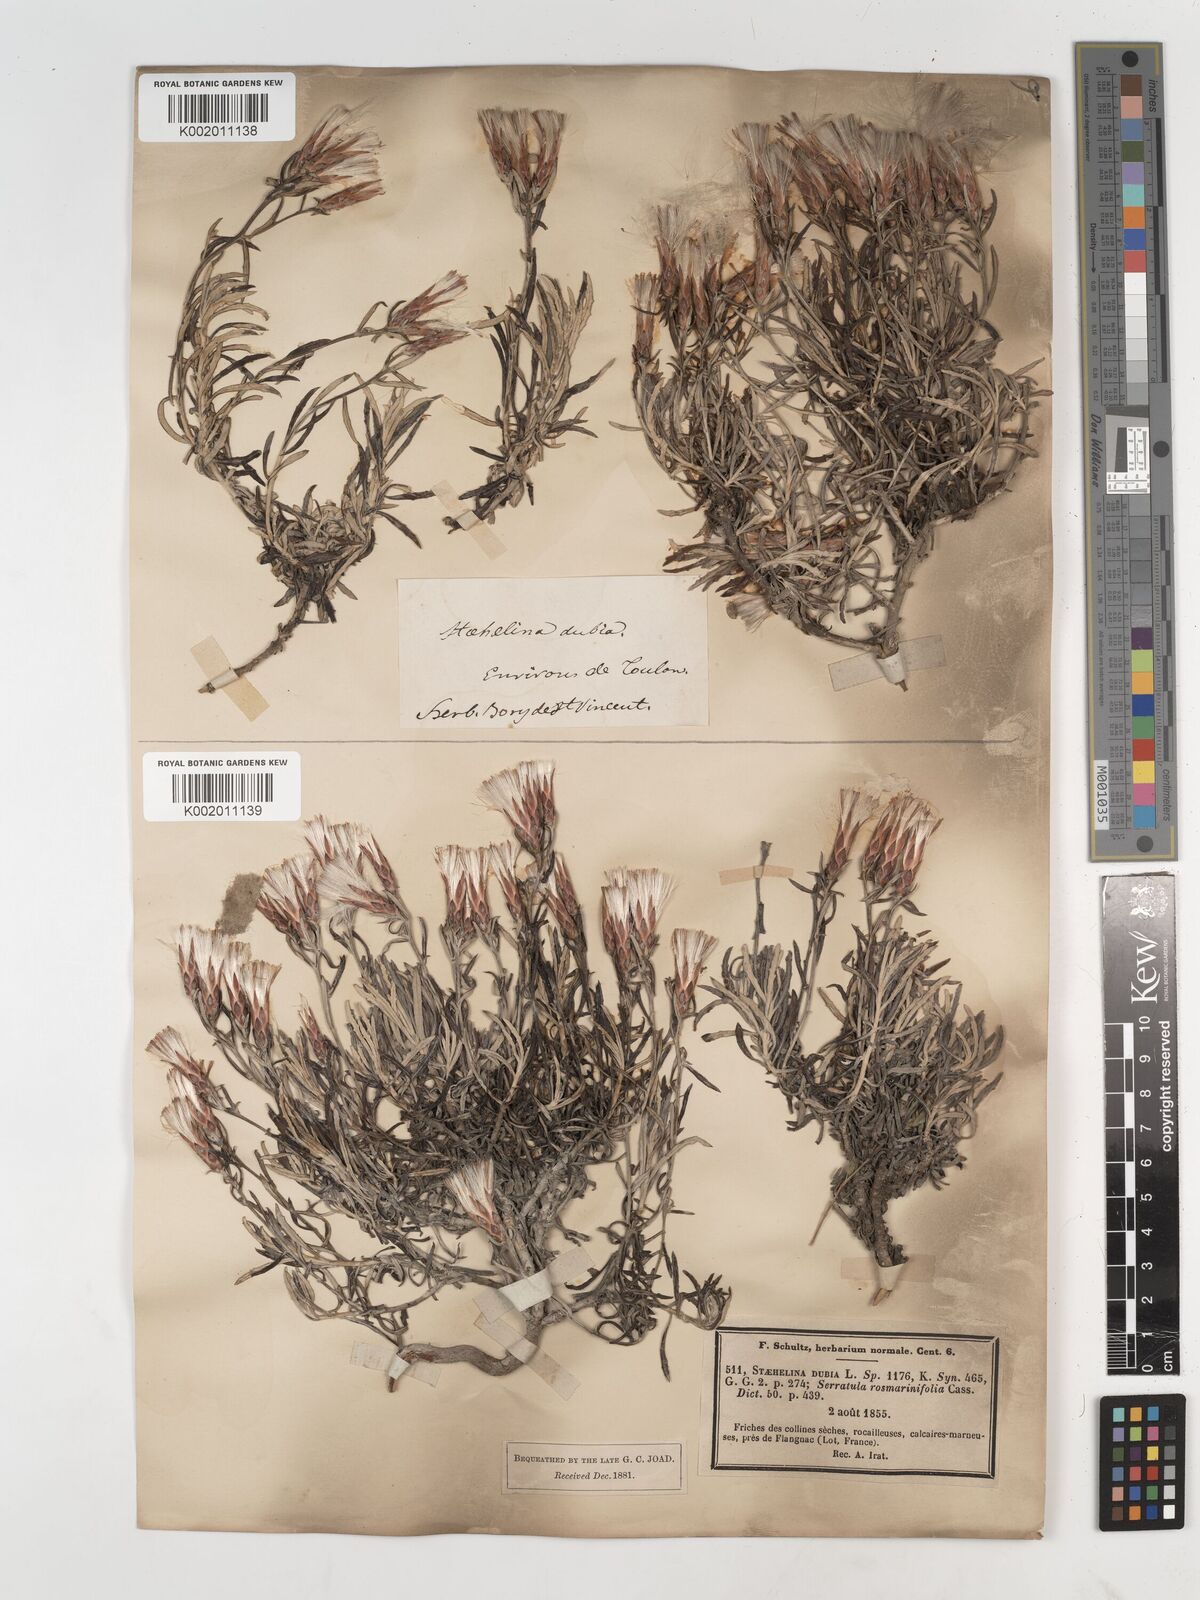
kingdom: Plantae
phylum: Tracheophyta
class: Magnoliopsida
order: Asterales
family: Asteraceae
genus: Staehelina
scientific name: Staehelina dubia
